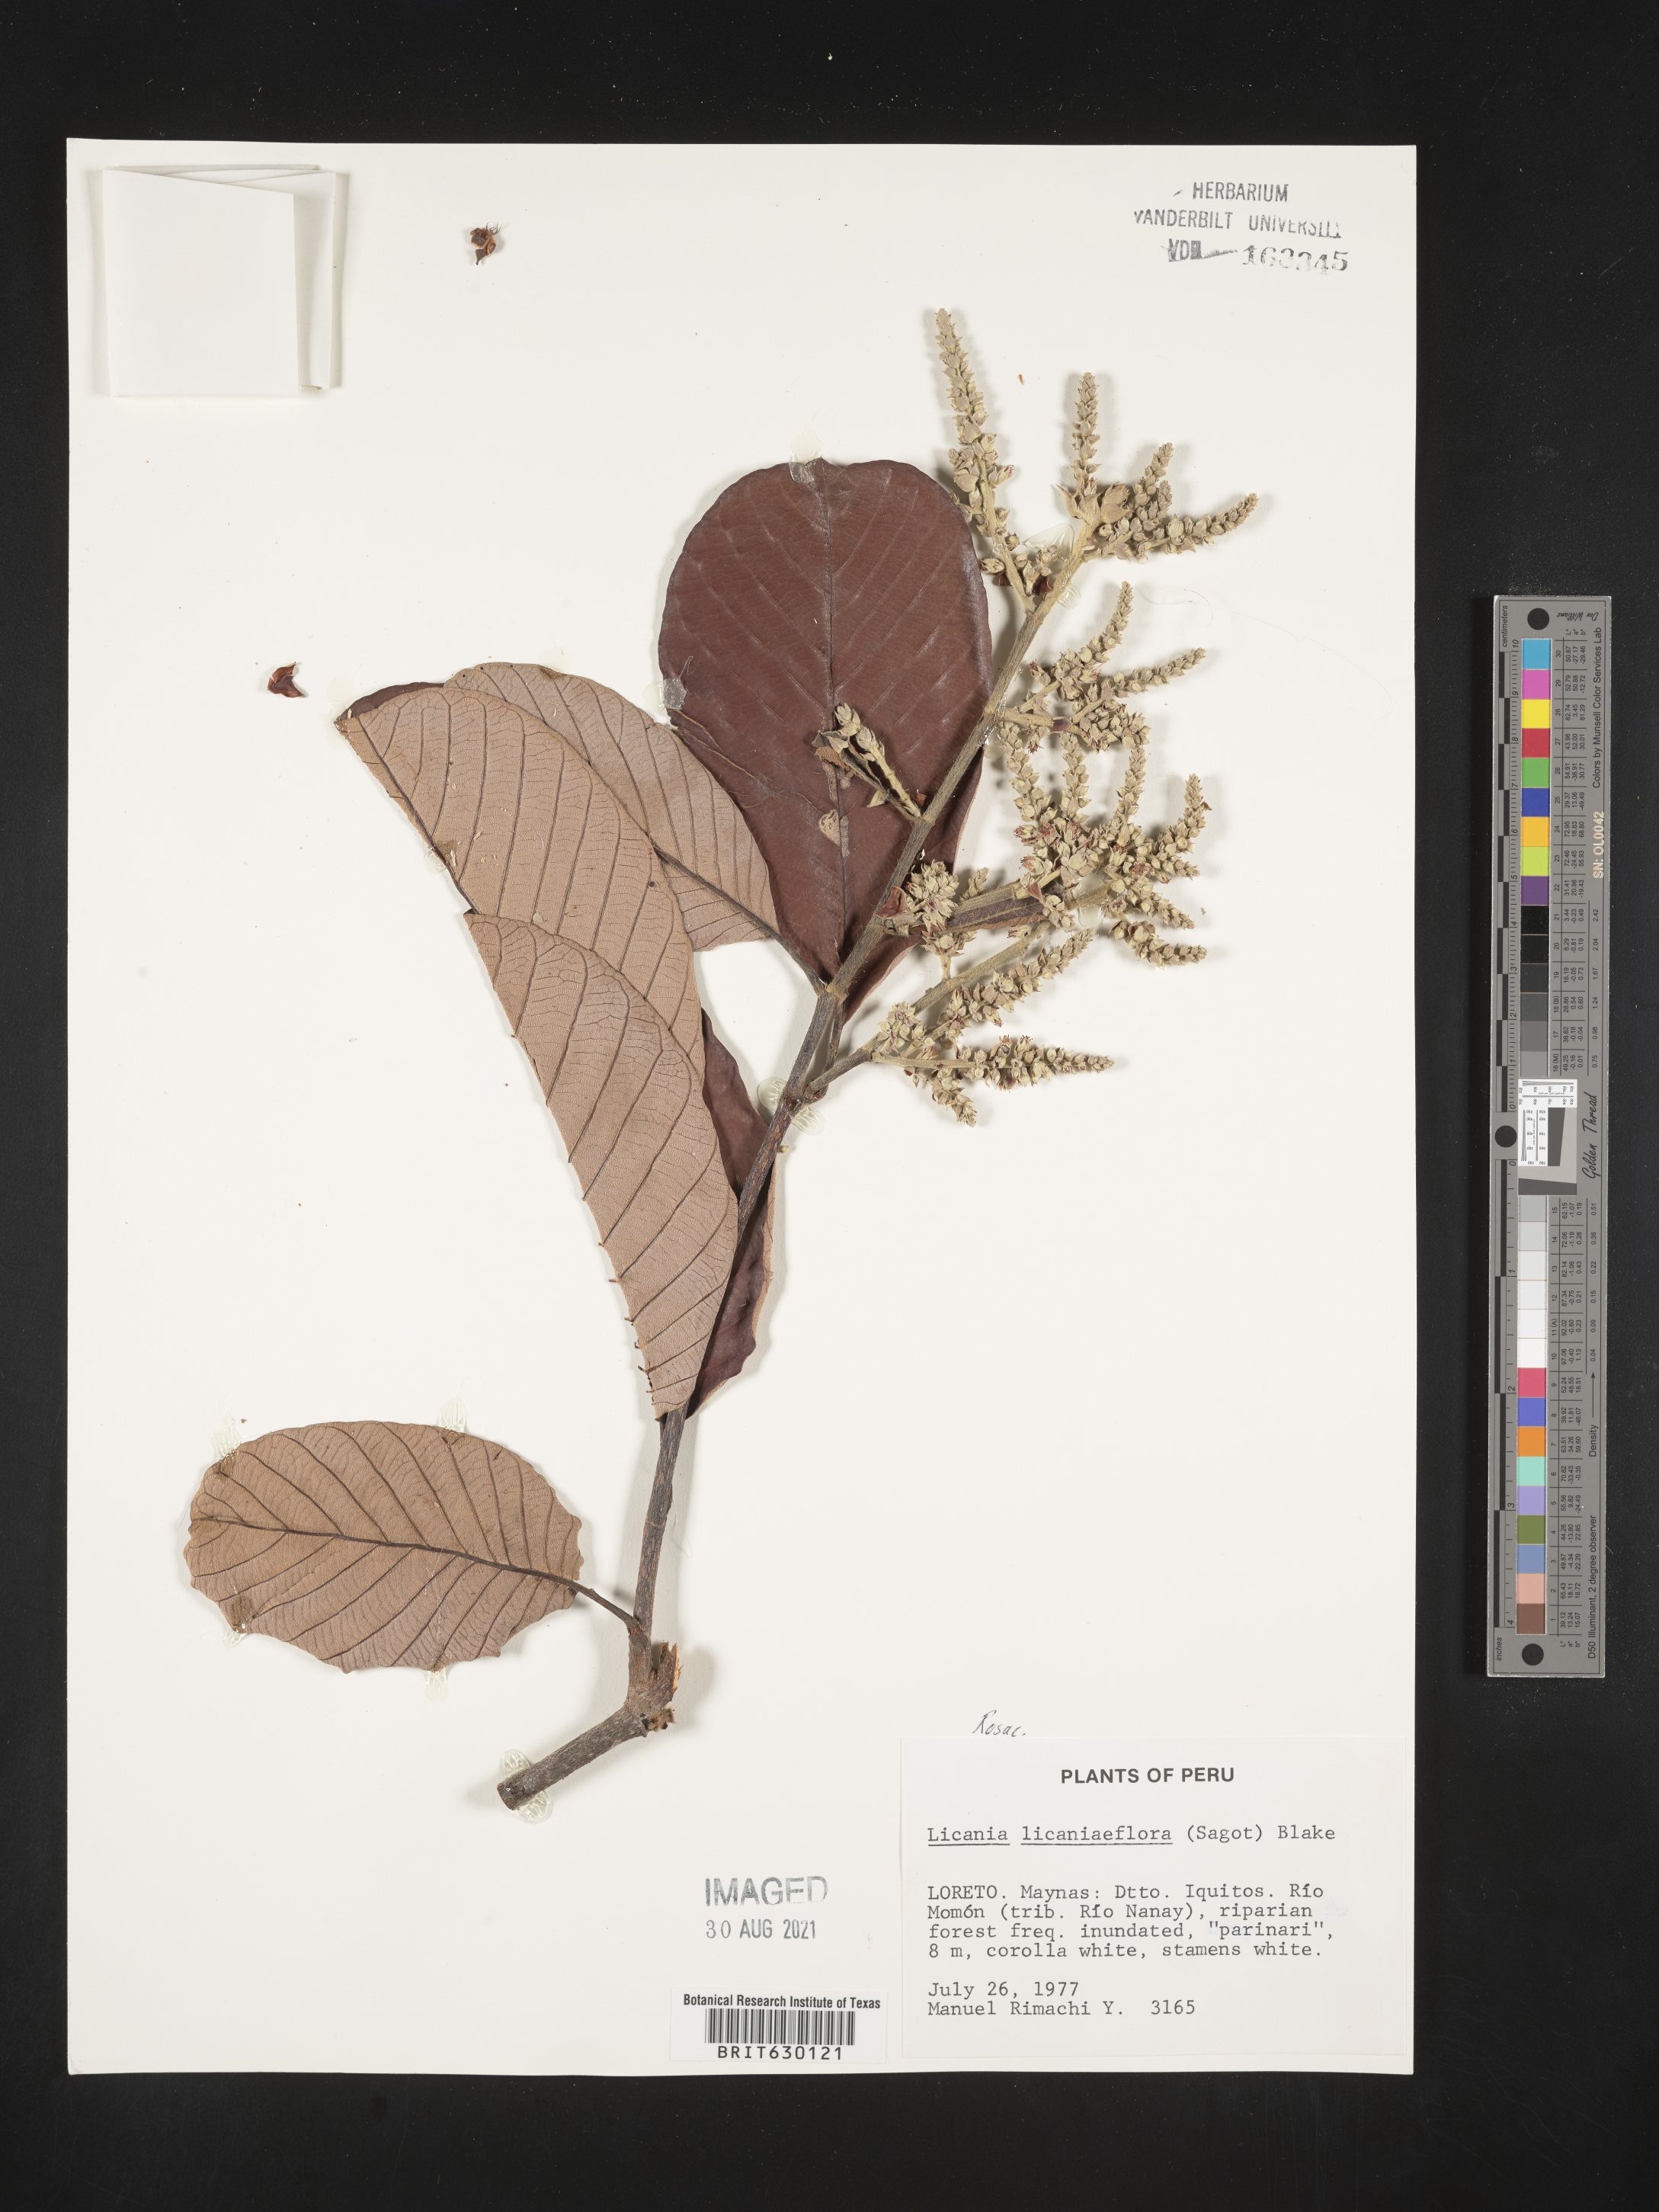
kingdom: Plantae
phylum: Tracheophyta
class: Magnoliopsida
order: Malpighiales
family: Chrysobalanaceae
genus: Parinariopsis
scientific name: Parinariopsis licaniiflora
